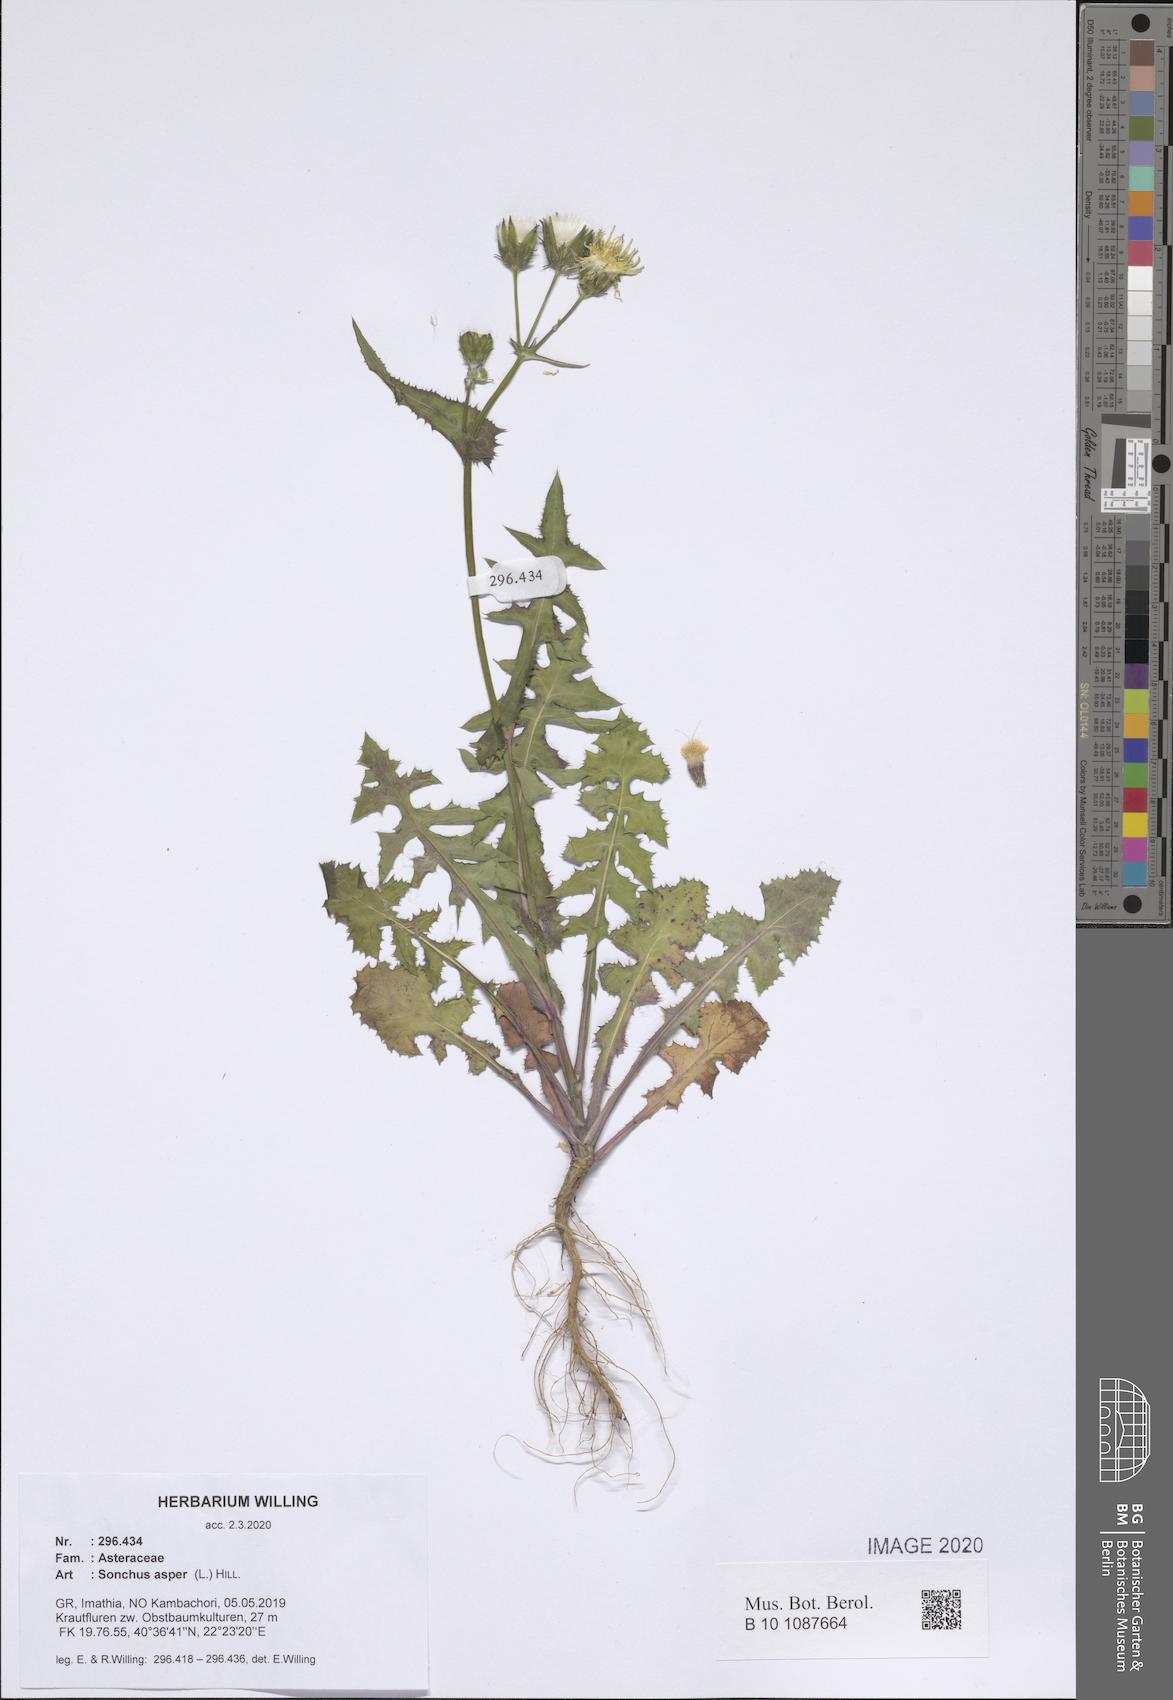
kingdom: Plantae
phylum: Tracheophyta
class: Magnoliopsida
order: Asterales
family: Asteraceae
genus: Sonchus
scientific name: Sonchus asper
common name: Prickly sow-thistle
